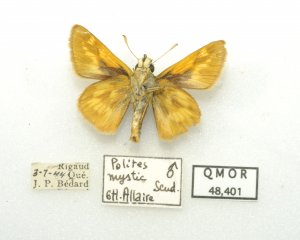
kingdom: Animalia
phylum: Arthropoda
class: Insecta
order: Lepidoptera
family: Hesperiidae
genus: Polites
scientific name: Polites
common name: Long Dash Skipper
